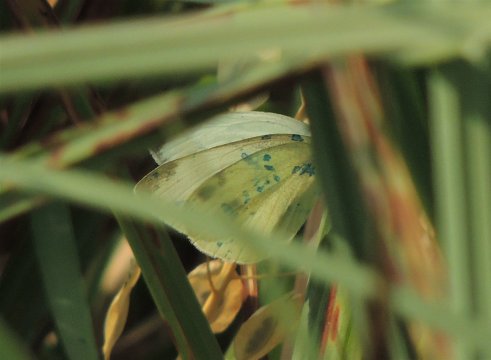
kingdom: Animalia
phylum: Arthropoda
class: Insecta
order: Lepidoptera
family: Pieridae
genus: Pieris
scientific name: Pieris rapae
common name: Cabbage White
